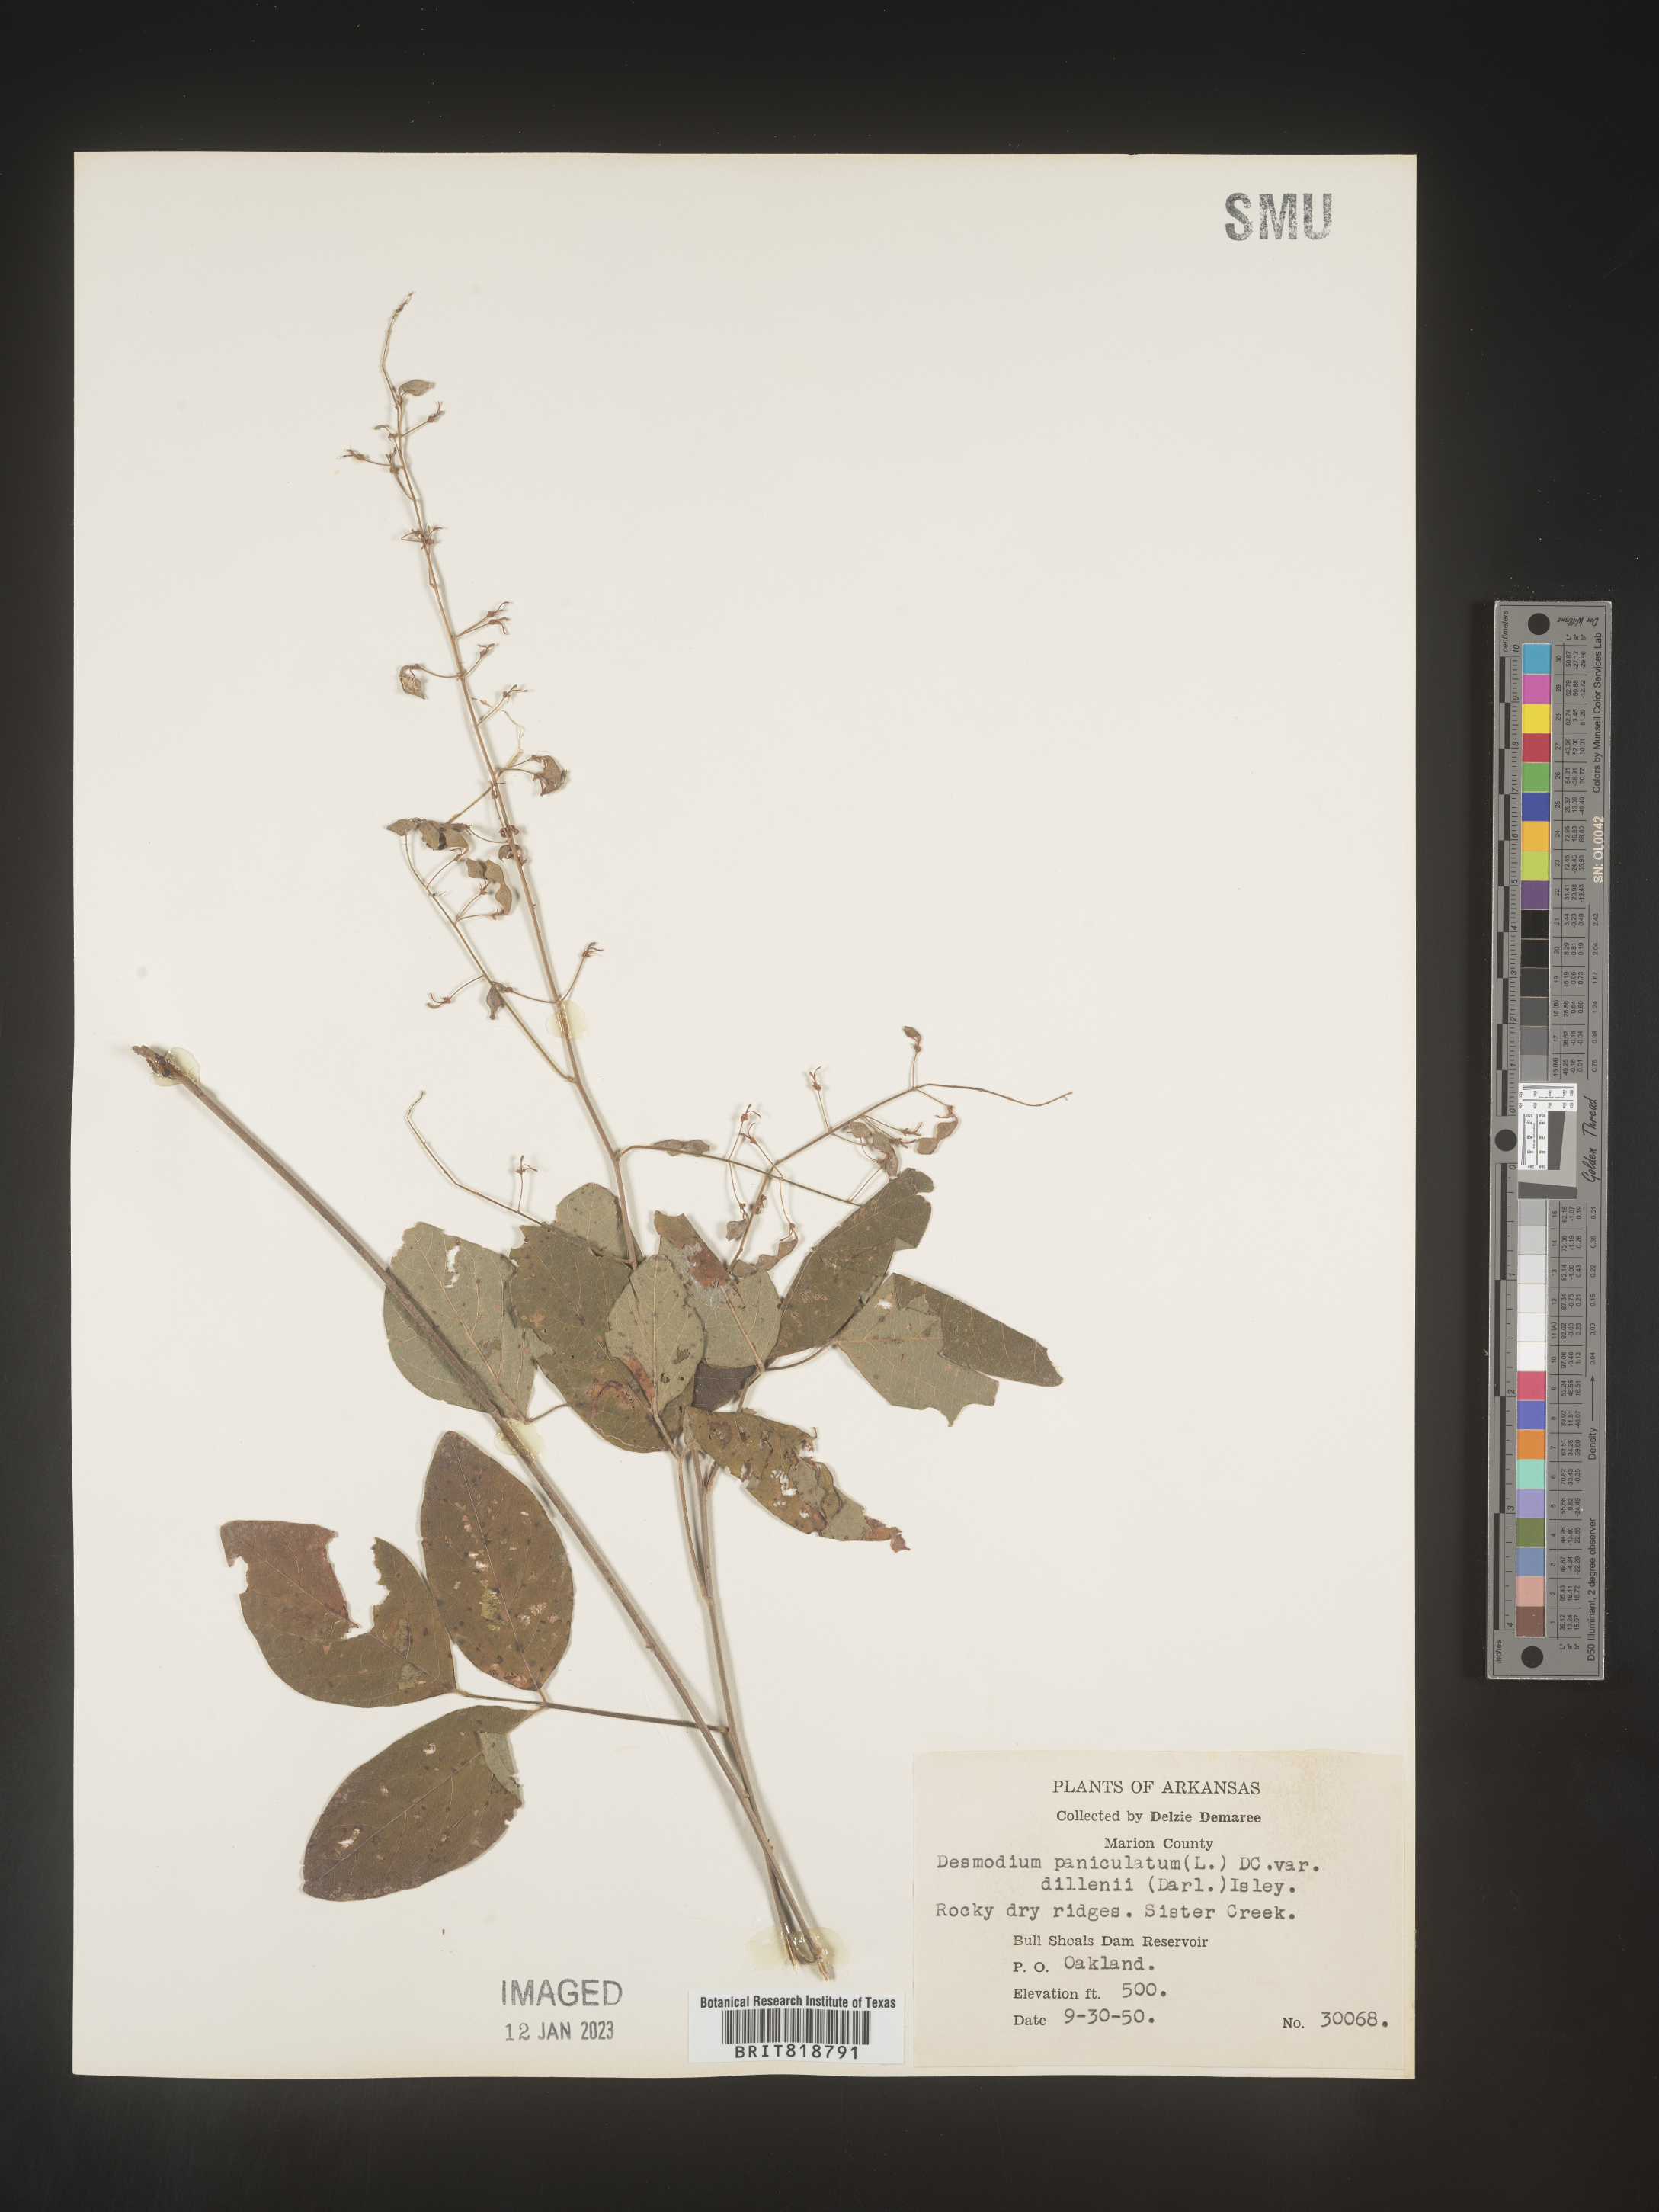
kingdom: Plantae
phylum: Tracheophyta
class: Magnoliopsida
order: Fabales
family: Fabaceae
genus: Desmodium
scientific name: Desmodium perplexum
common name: Perplexed tick trefoil
